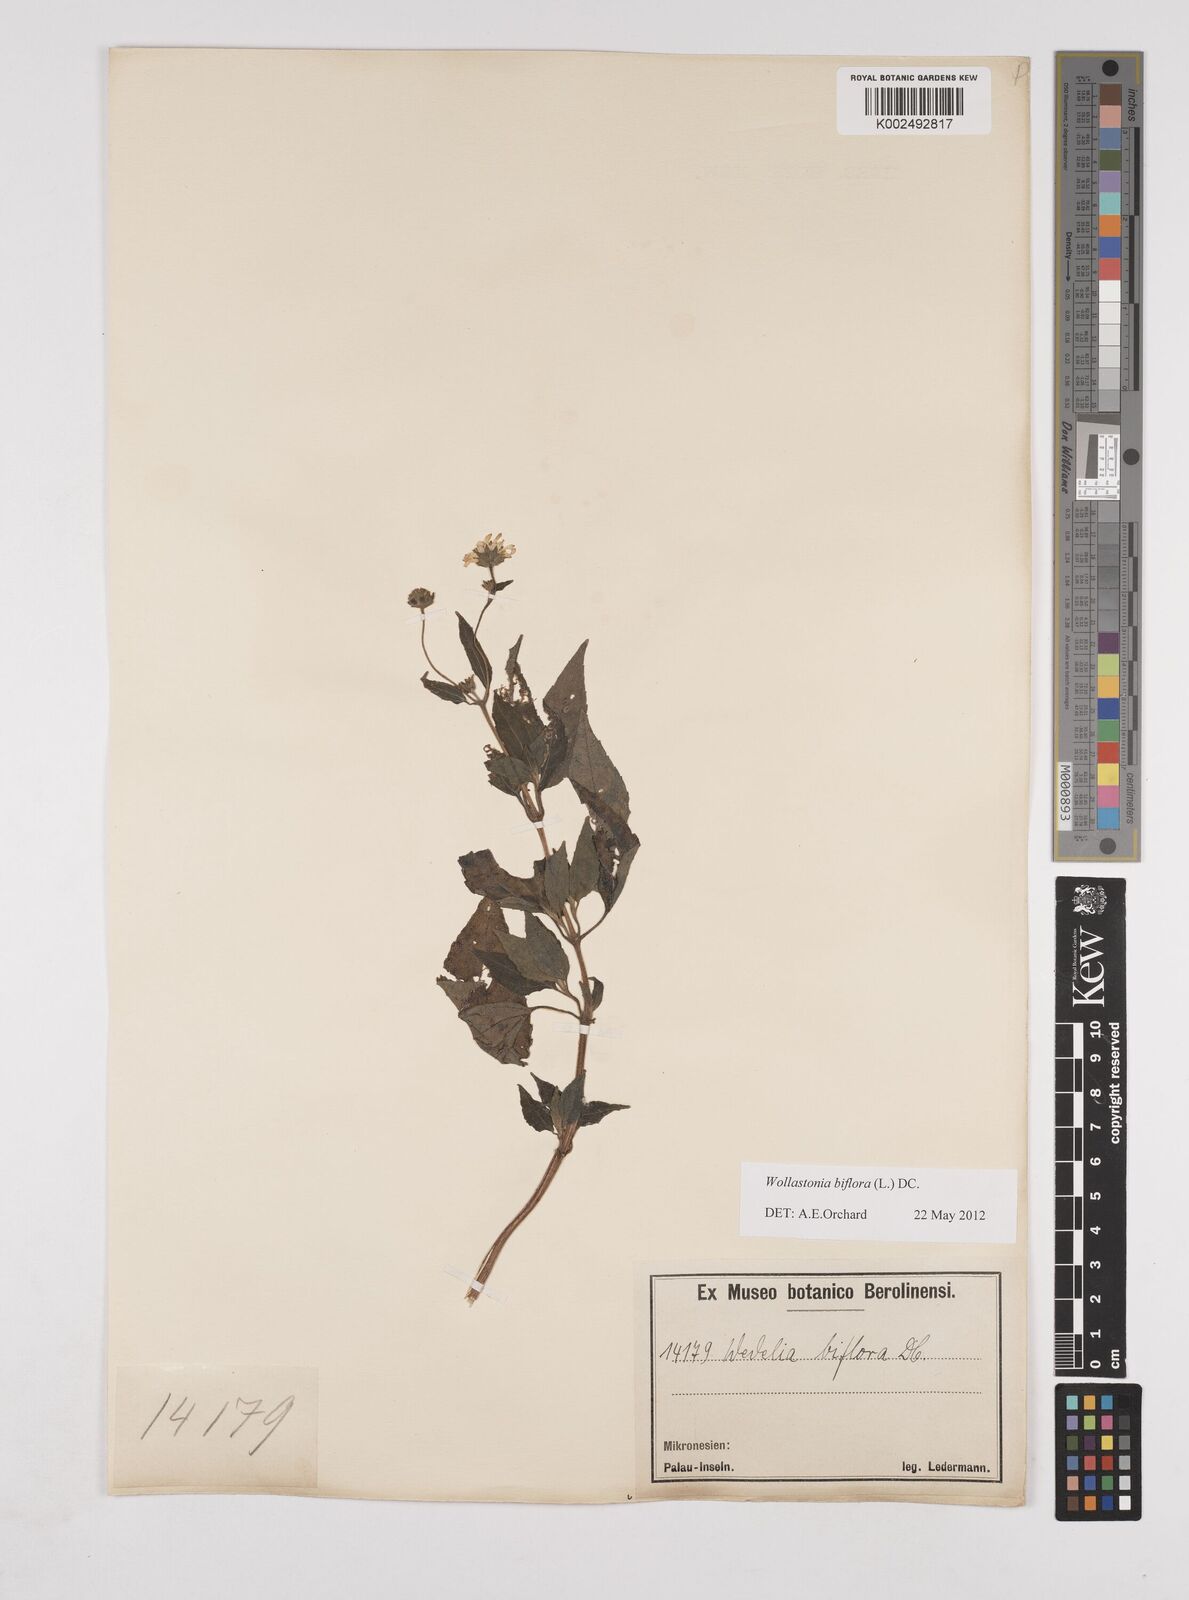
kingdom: Plantae
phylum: Tracheophyta
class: Magnoliopsida
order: Asterales
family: Asteraceae
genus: Wollastonia
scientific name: Wollastonia biflora
